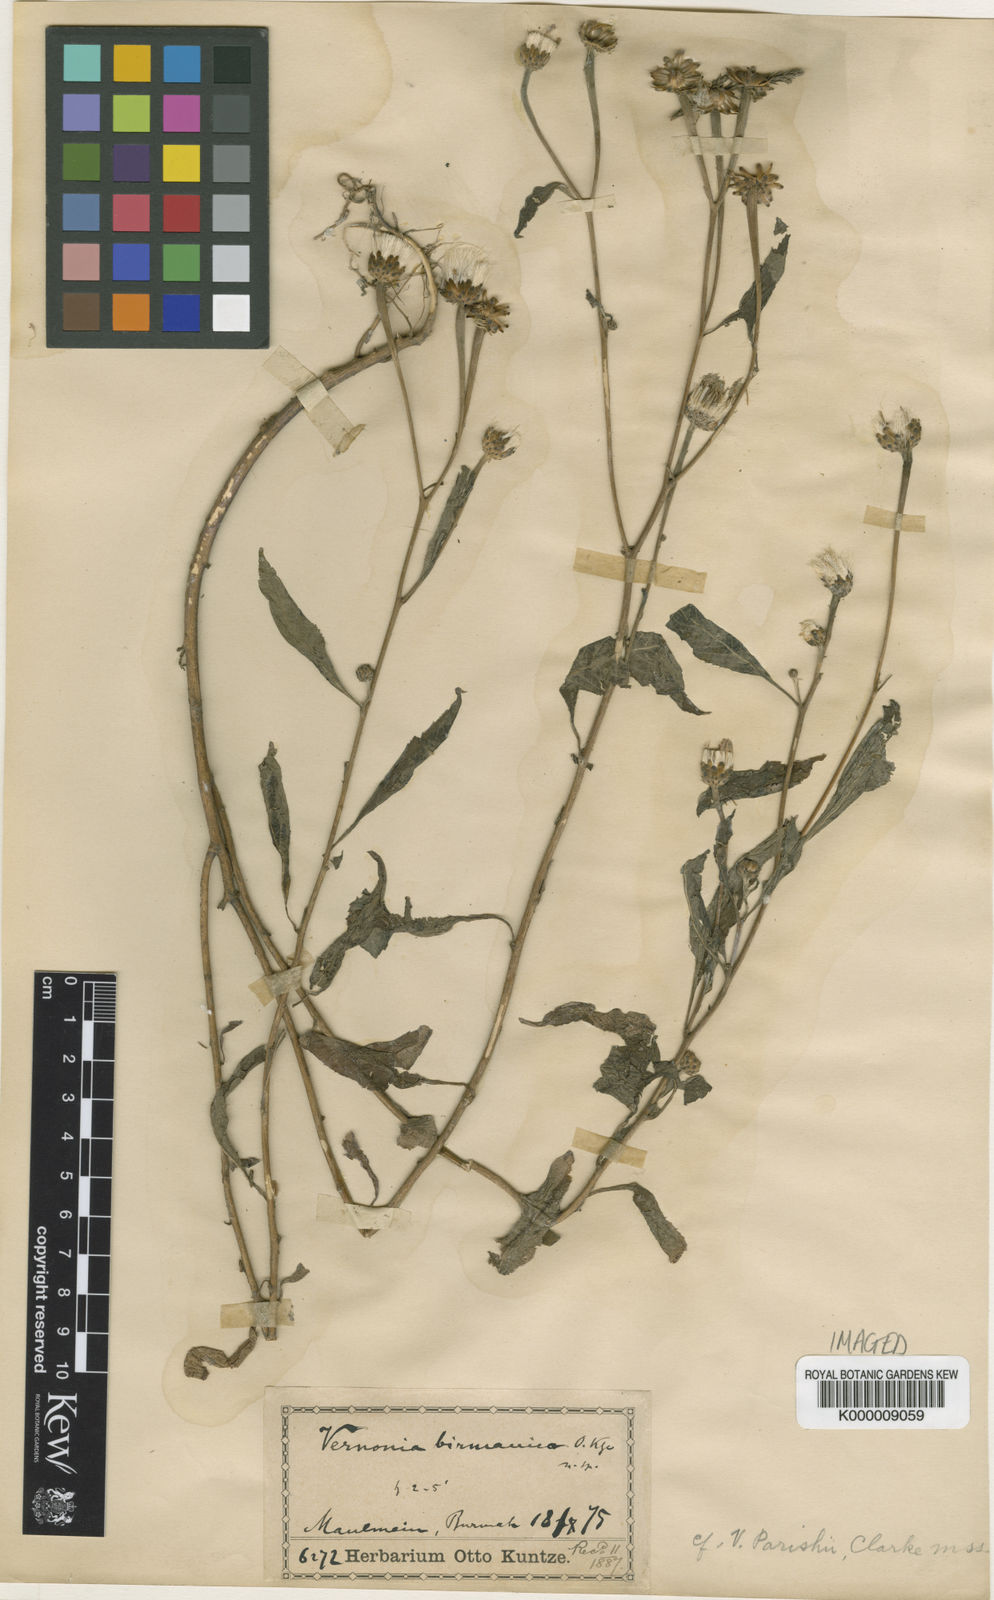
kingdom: Plantae
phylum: Tracheophyta
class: Magnoliopsida
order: Asterales
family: Asteraceae
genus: Okia
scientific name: Okia birmanica
